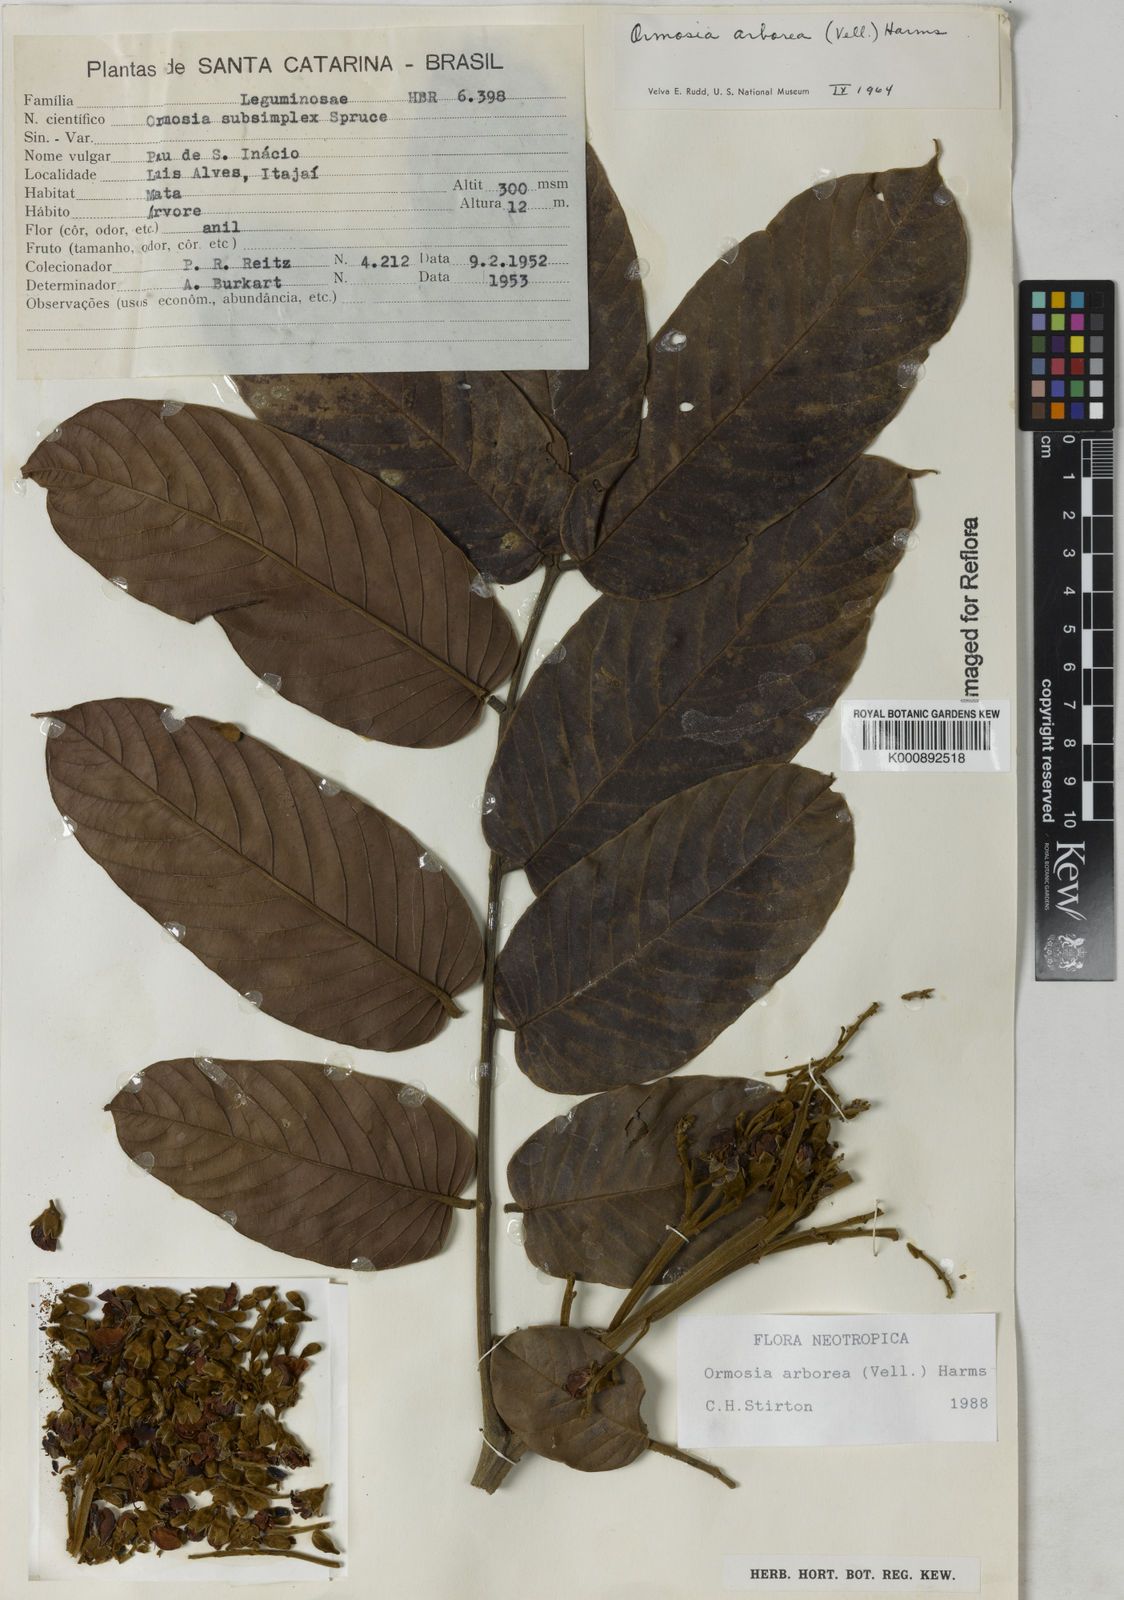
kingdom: Plantae
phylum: Tracheophyta
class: Magnoliopsida
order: Fabales
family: Fabaceae
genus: Ormosia
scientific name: Ormosia arborea
